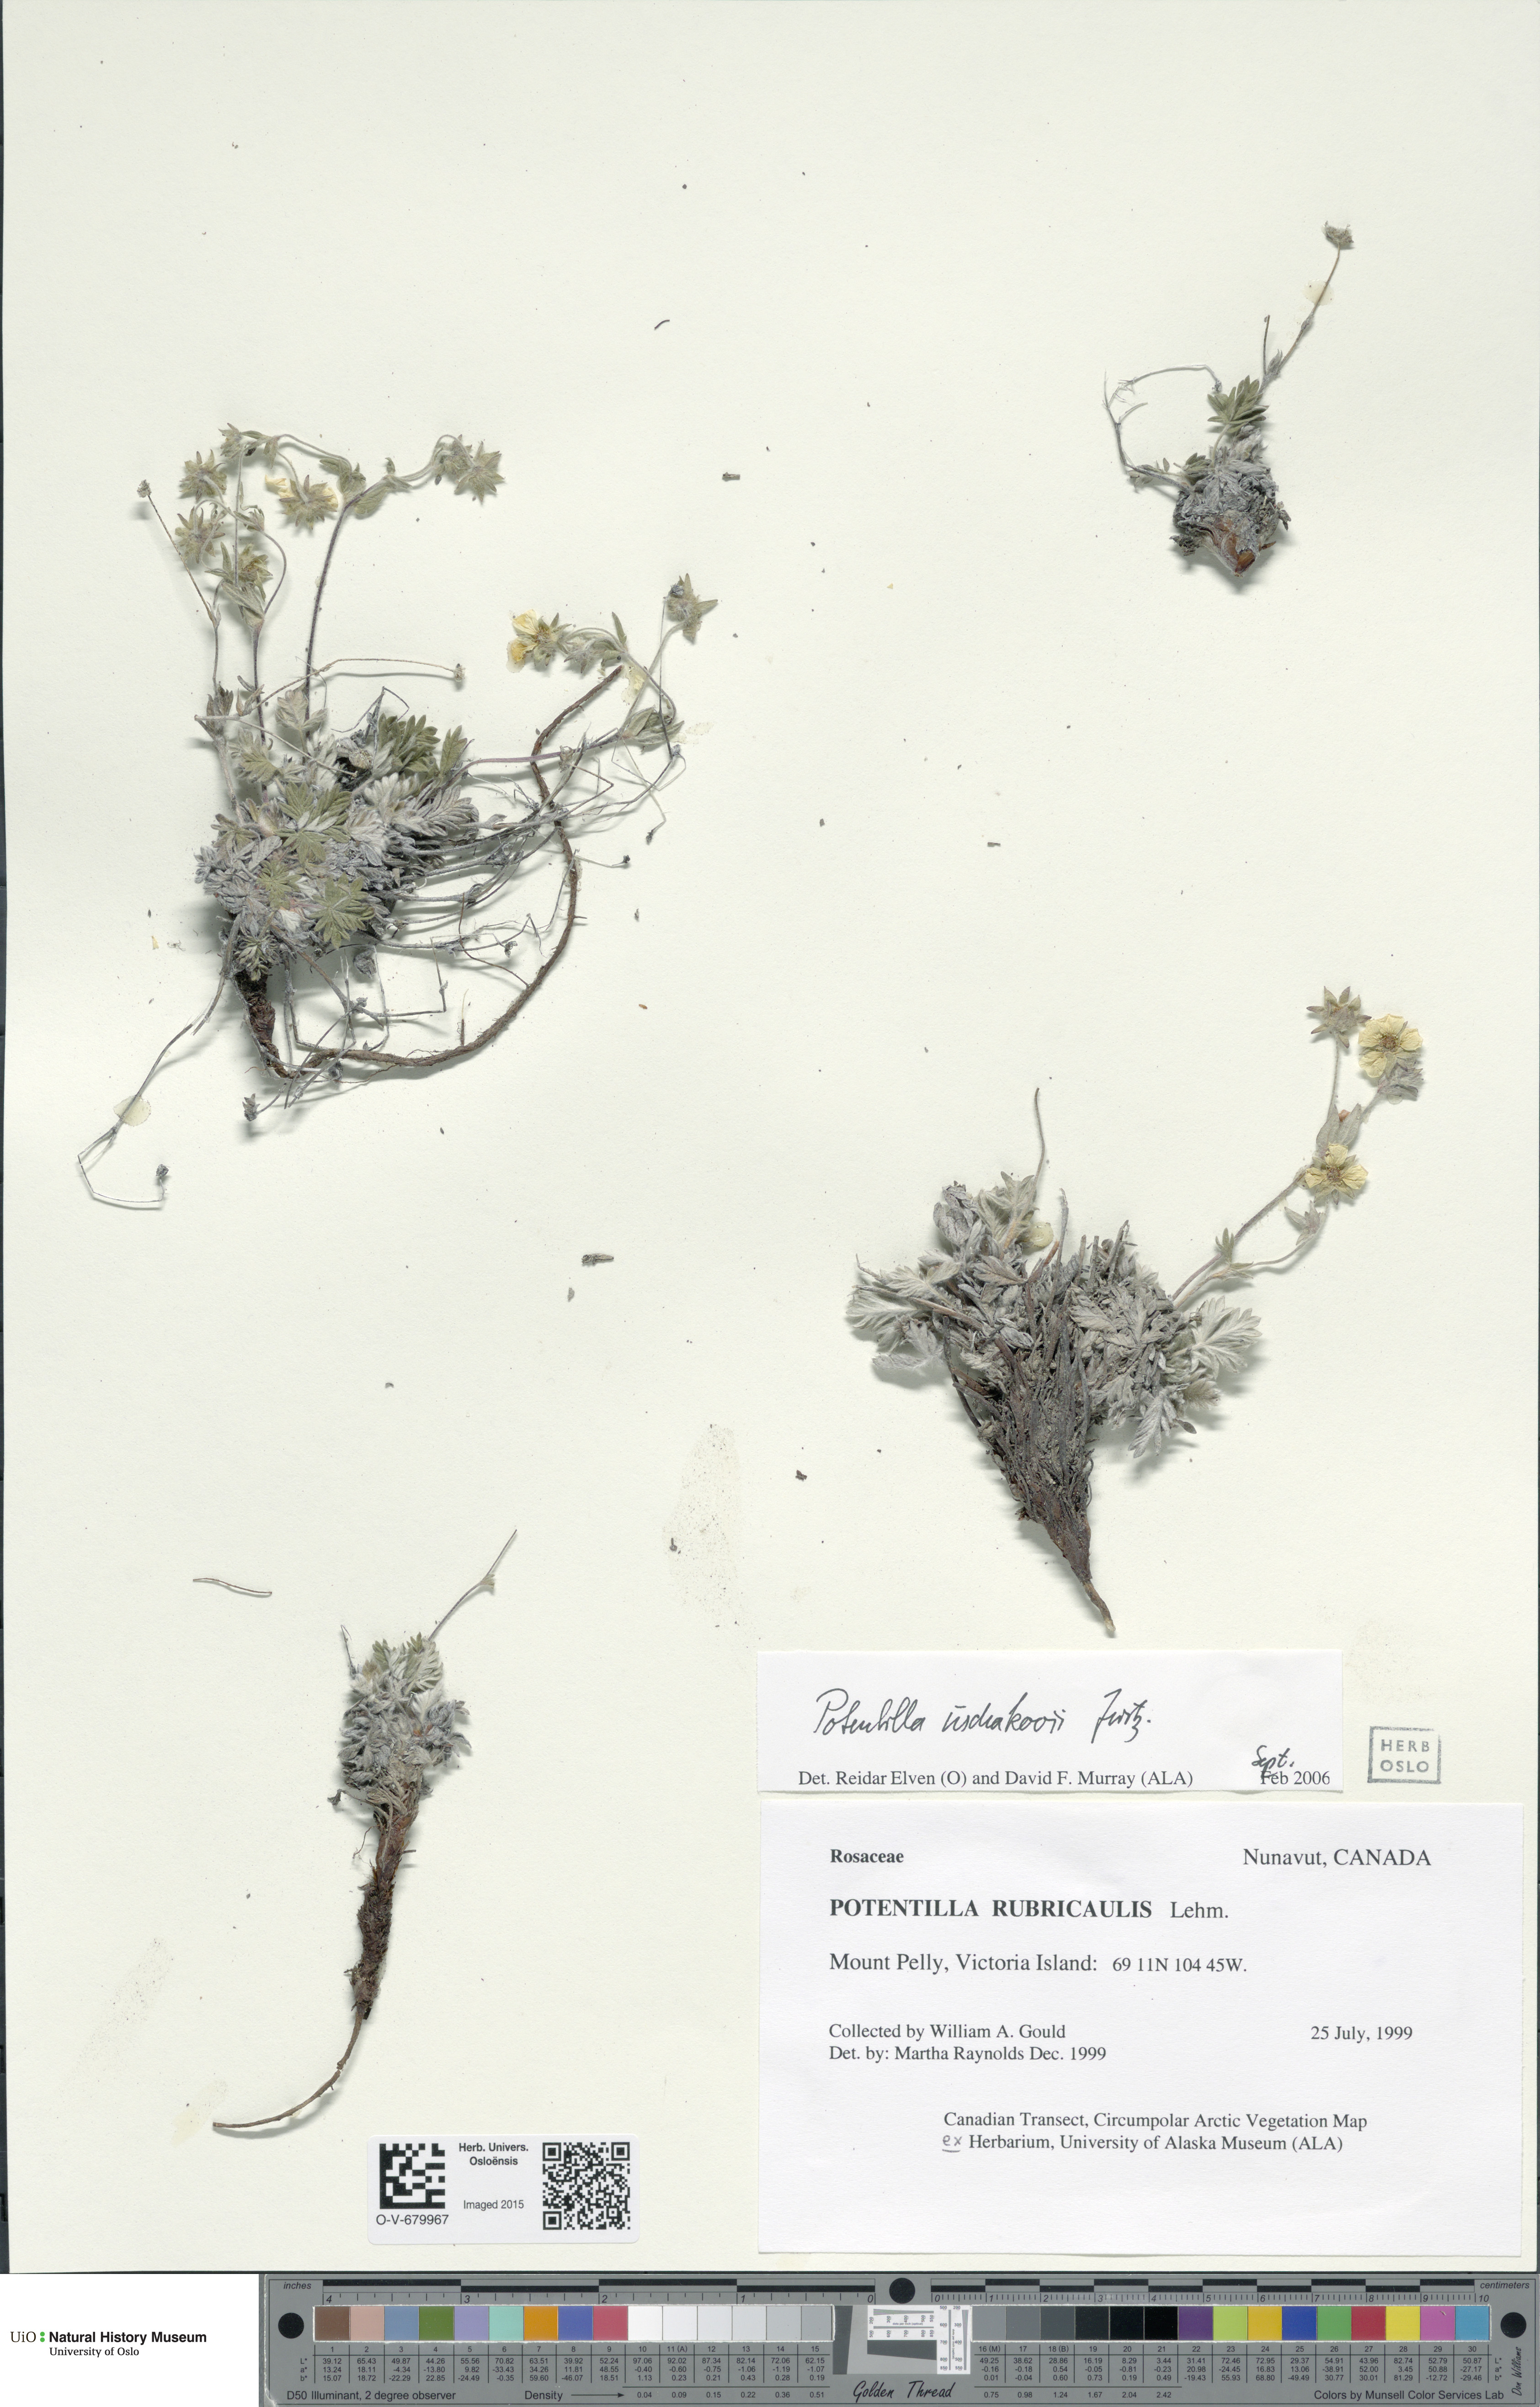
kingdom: Plantae
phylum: Tracheophyta
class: Magnoliopsida
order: Rosales
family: Rosaceae
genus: Potentilla
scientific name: Potentilla uschakovii
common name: Ushakov's cinquefoil
